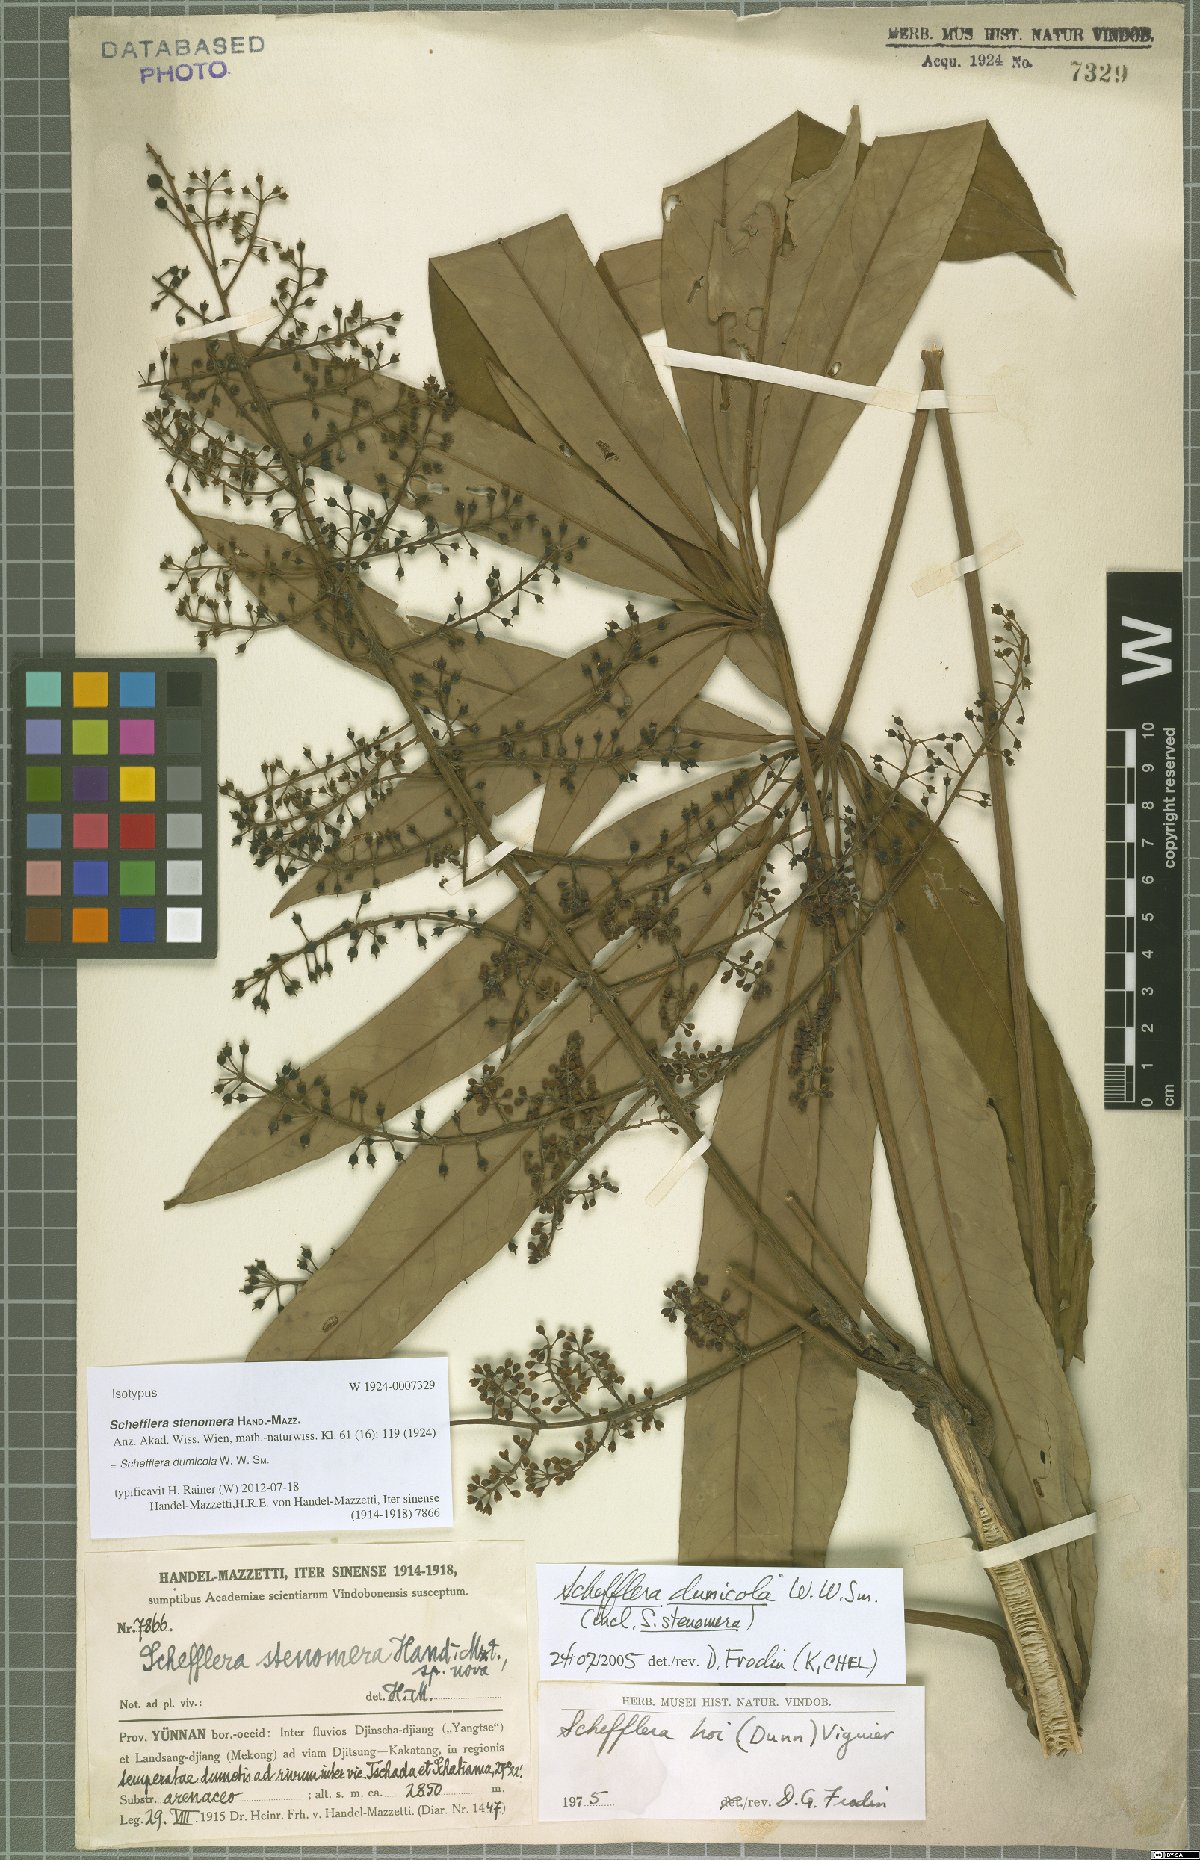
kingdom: Plantae
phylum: Tracheophyta
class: Magnoliopsida
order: Apiales
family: Araliaceae
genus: Heptapleurum
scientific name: Heptapleurum hoi
